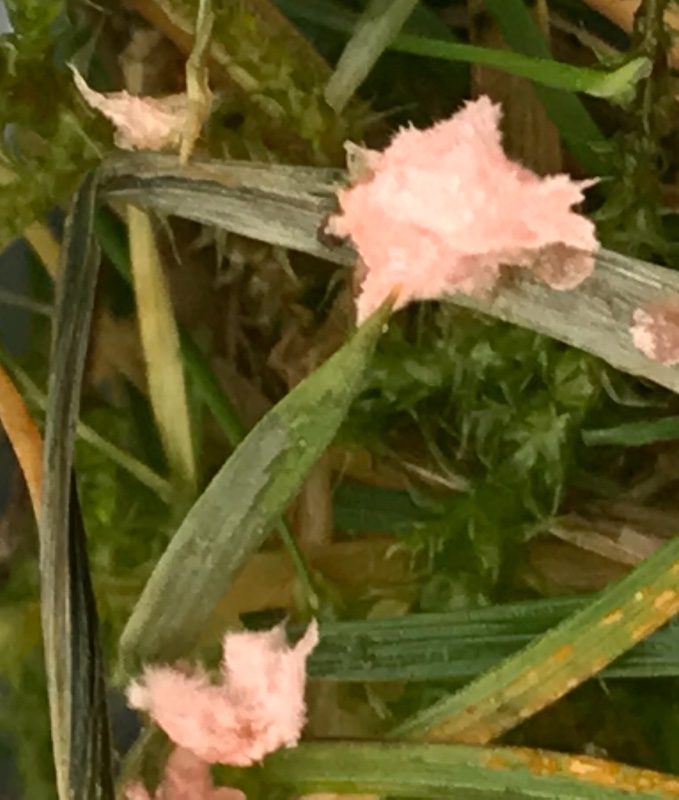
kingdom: Fungi
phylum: Basidiomycota
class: Agaricomycetes
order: Corticiales
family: Corticiaceae
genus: Laetisaria
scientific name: Laetisaria fuciformis
